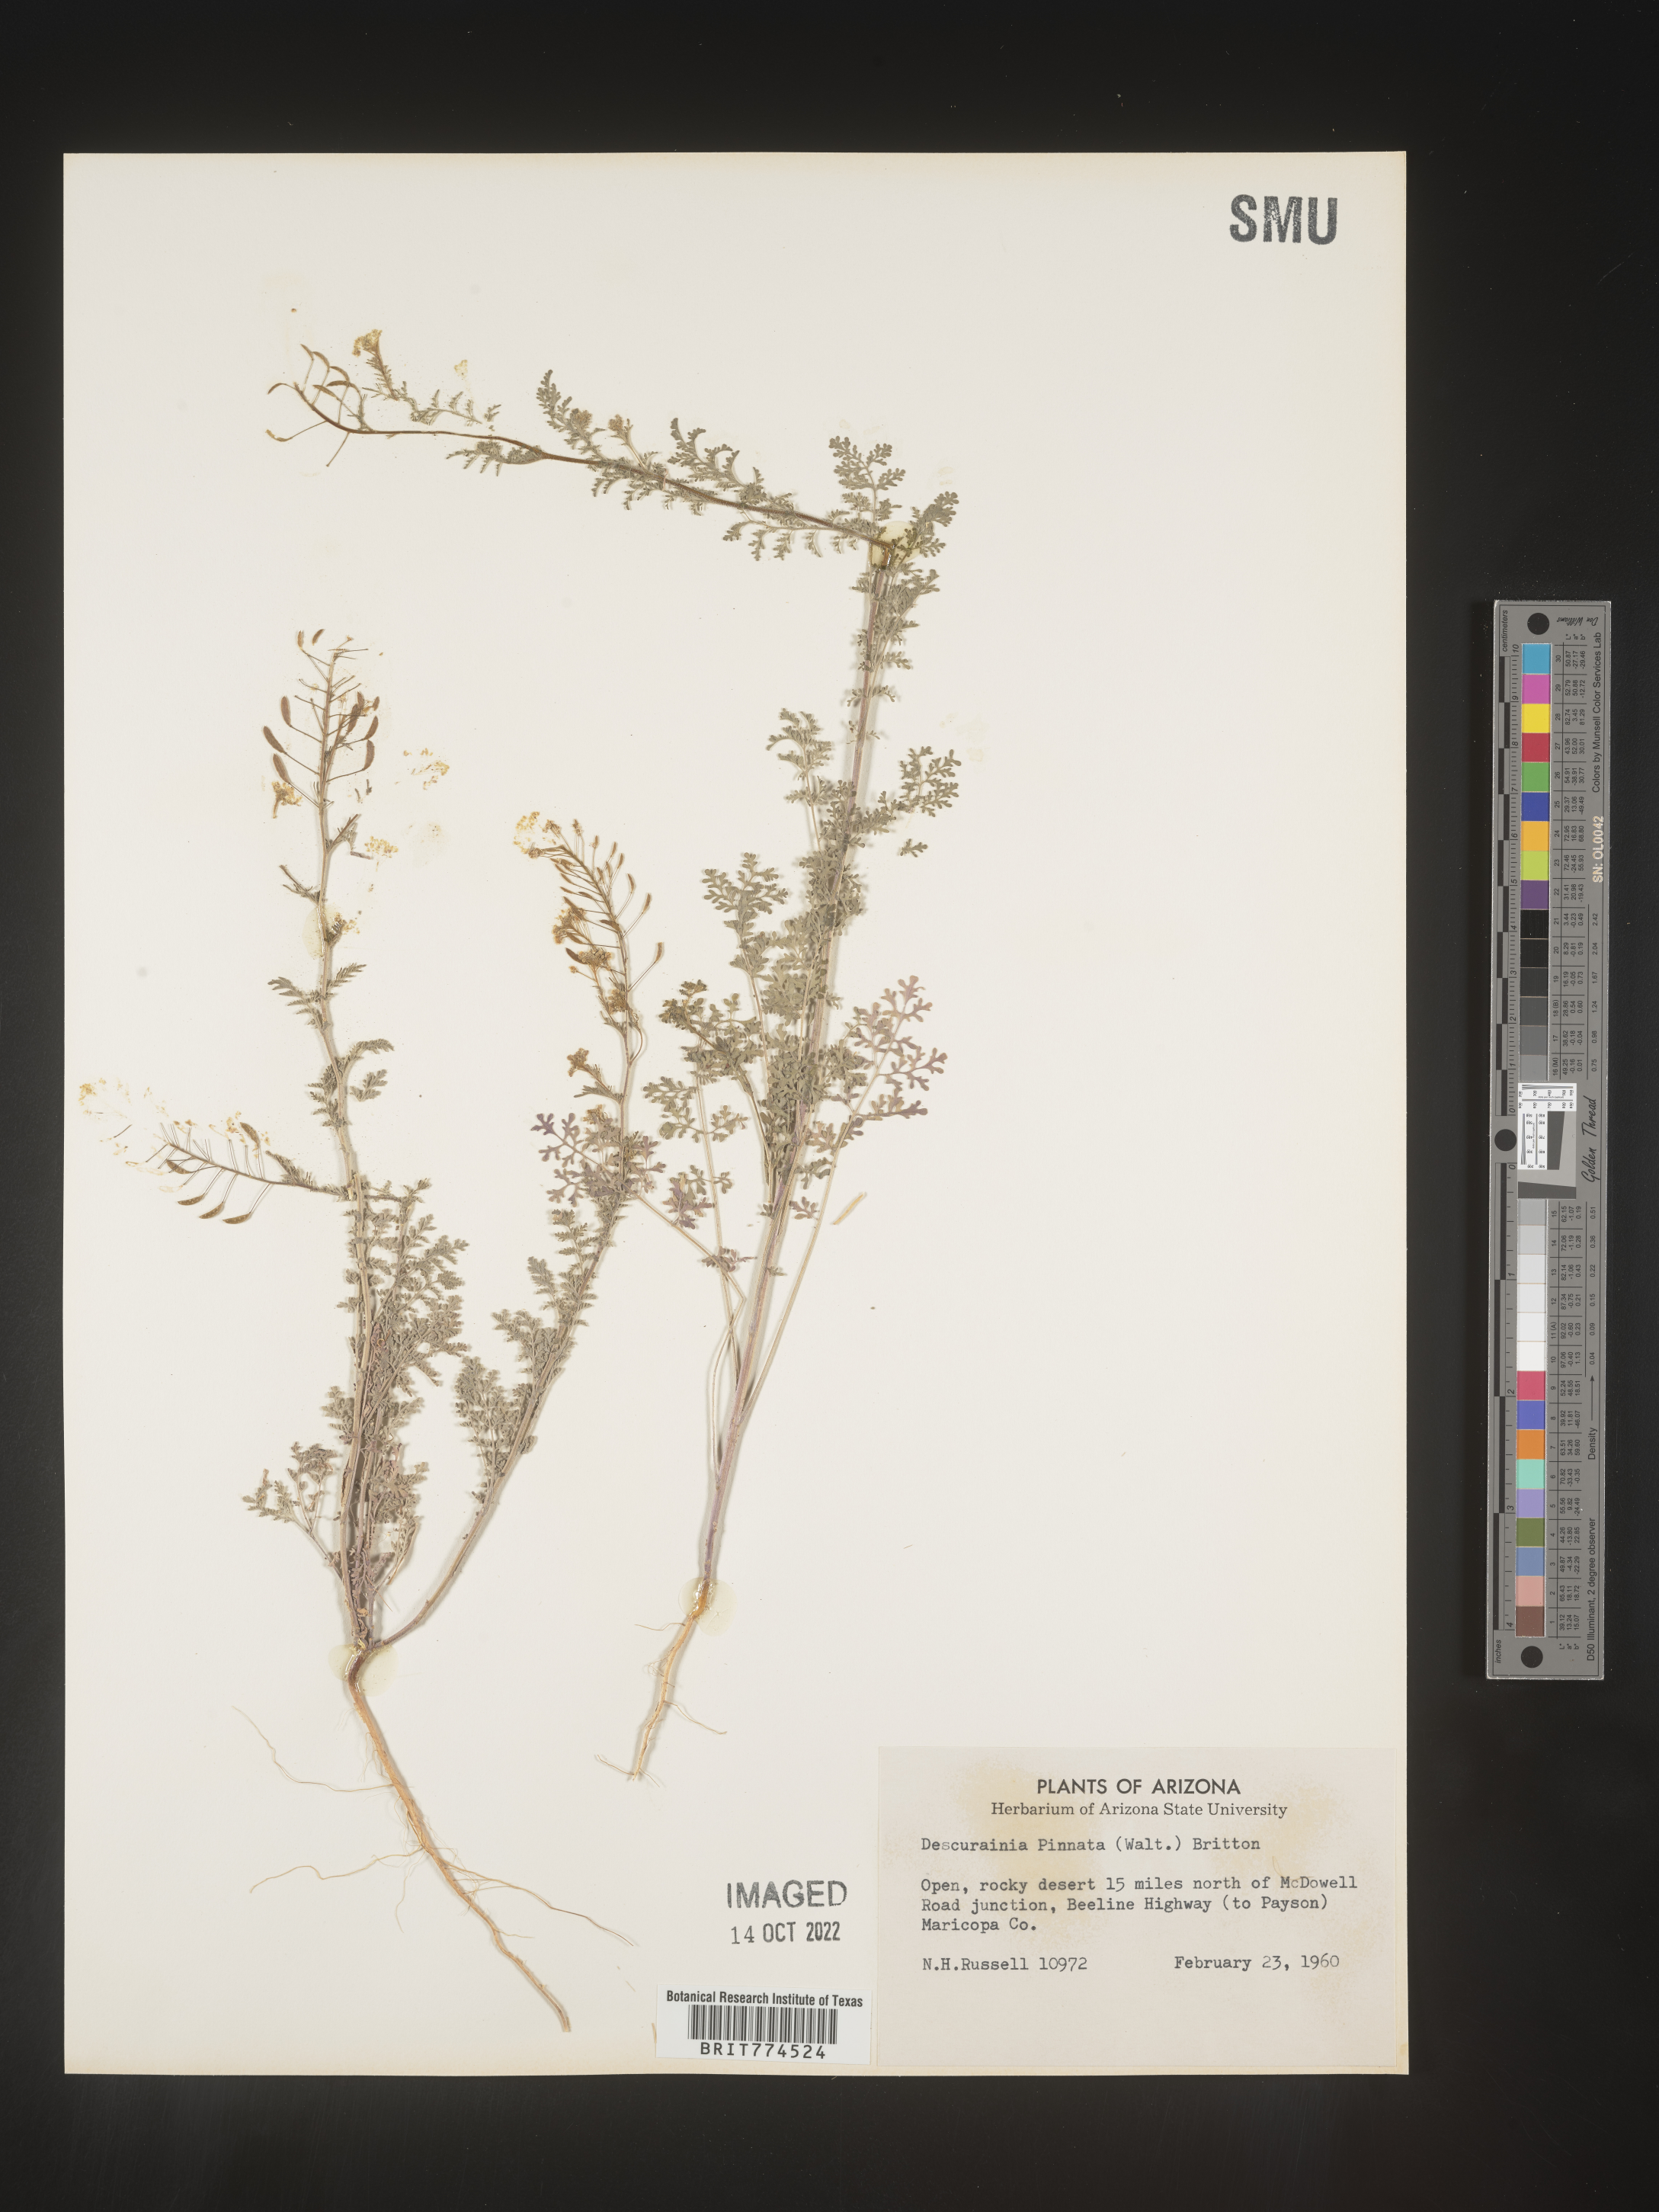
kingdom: Plantae
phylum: Tracheophyta
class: Magnoliopsida
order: Brassicales
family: Brassicaceae
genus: Descurainia
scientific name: Descurainia pinnata
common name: Western tansy mustard
